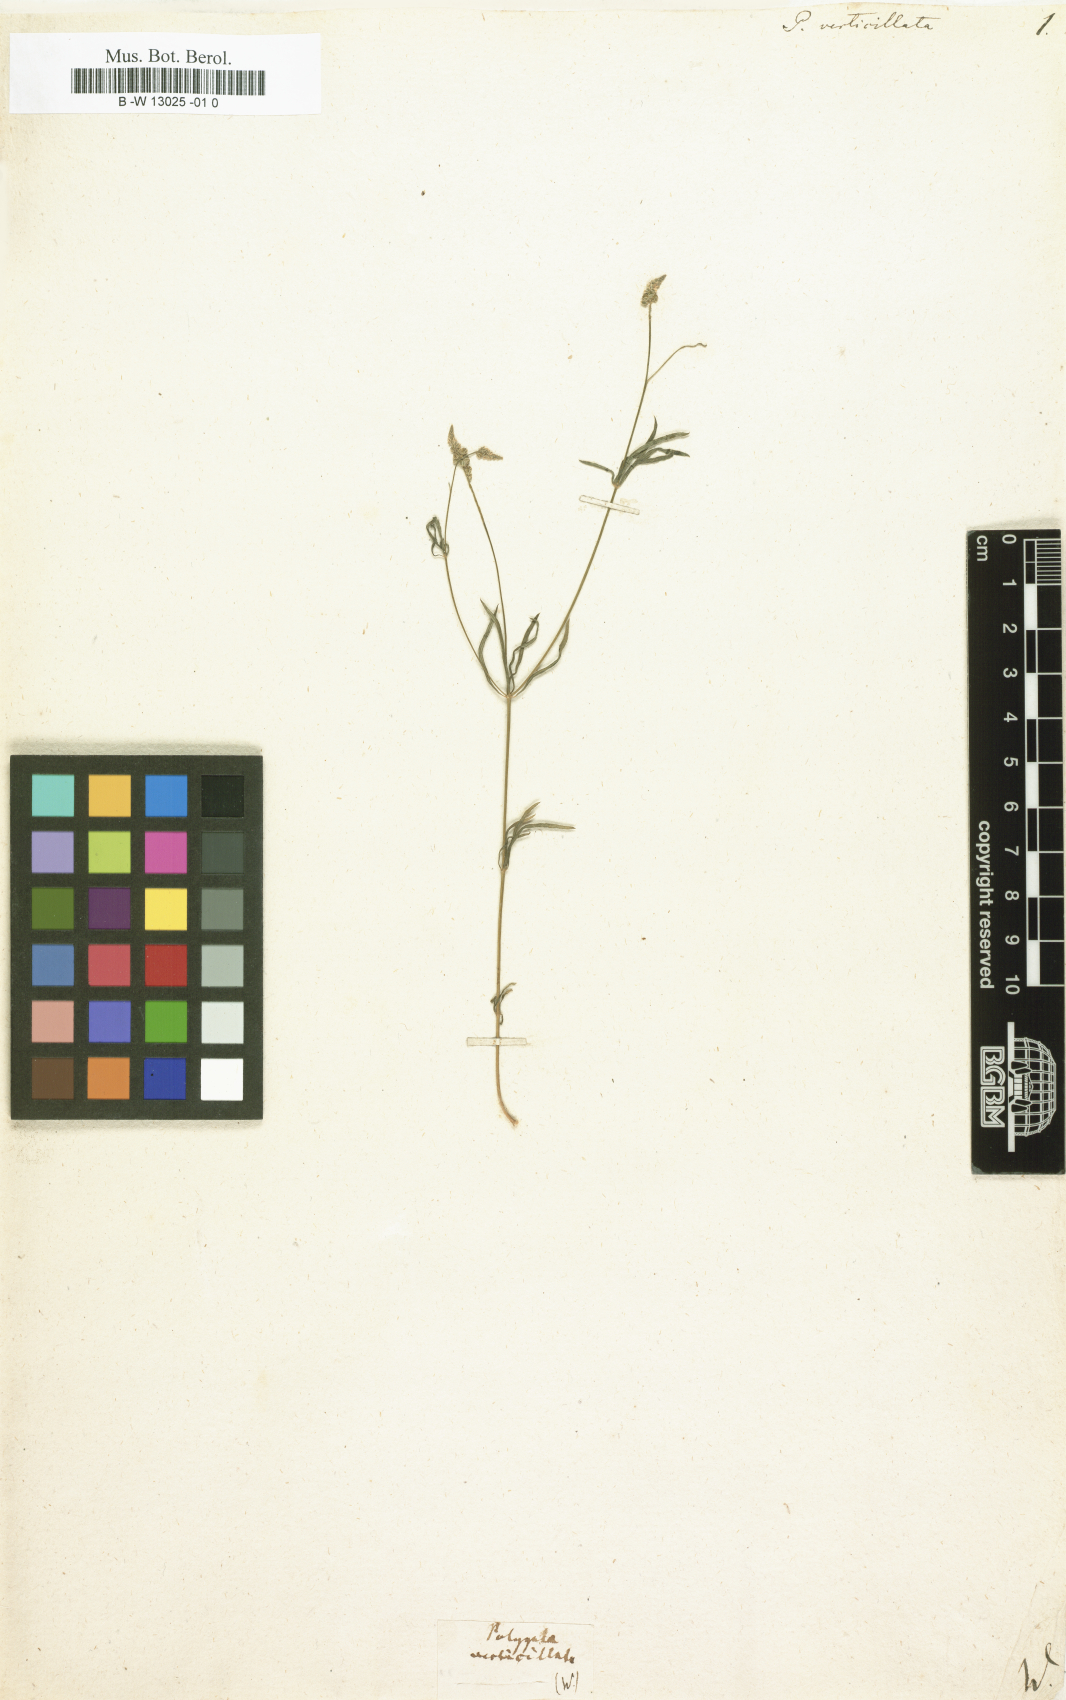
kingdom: Plantae
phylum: Tracheophyta
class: Magnoliopsida
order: Fabales
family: Polygalaceae
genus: Polygala
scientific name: Polygala verticillata
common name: Whorl milkwort
